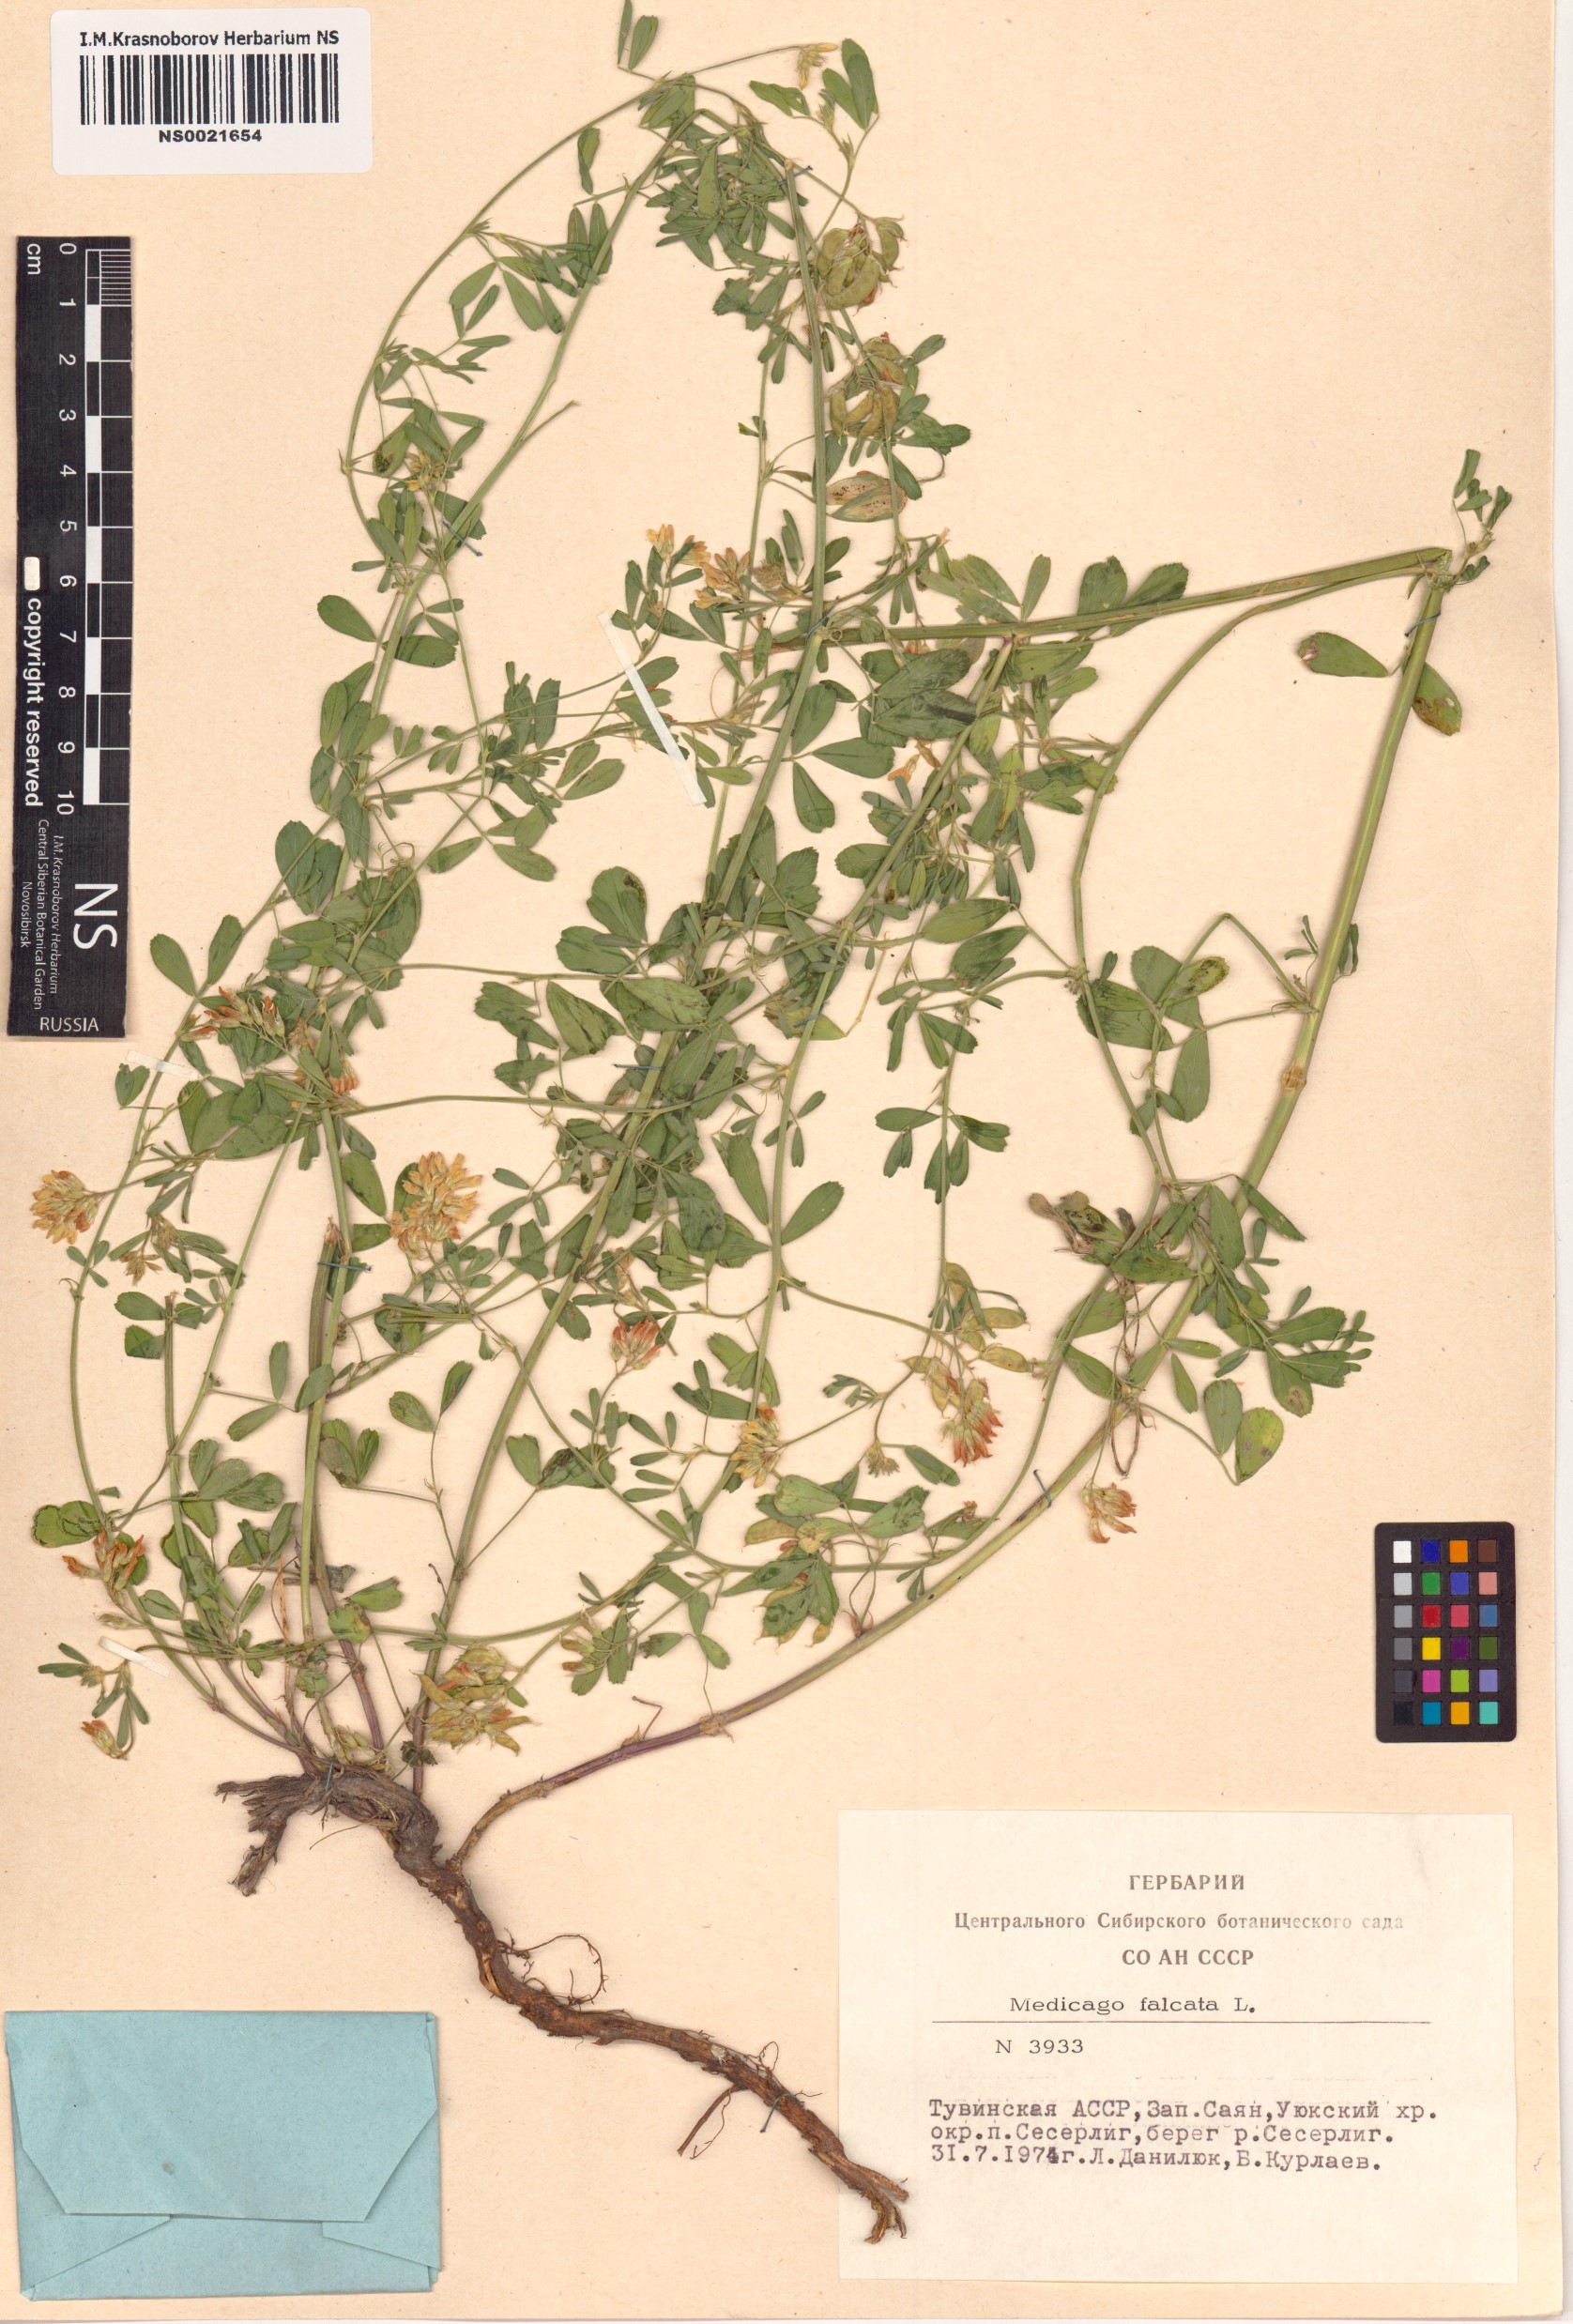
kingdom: Plantae
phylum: Tracheophyta
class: Magnoliopsida
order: Fabales
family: Fabaceae
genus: Medicago
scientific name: Medicago falcata
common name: Sickle medick
